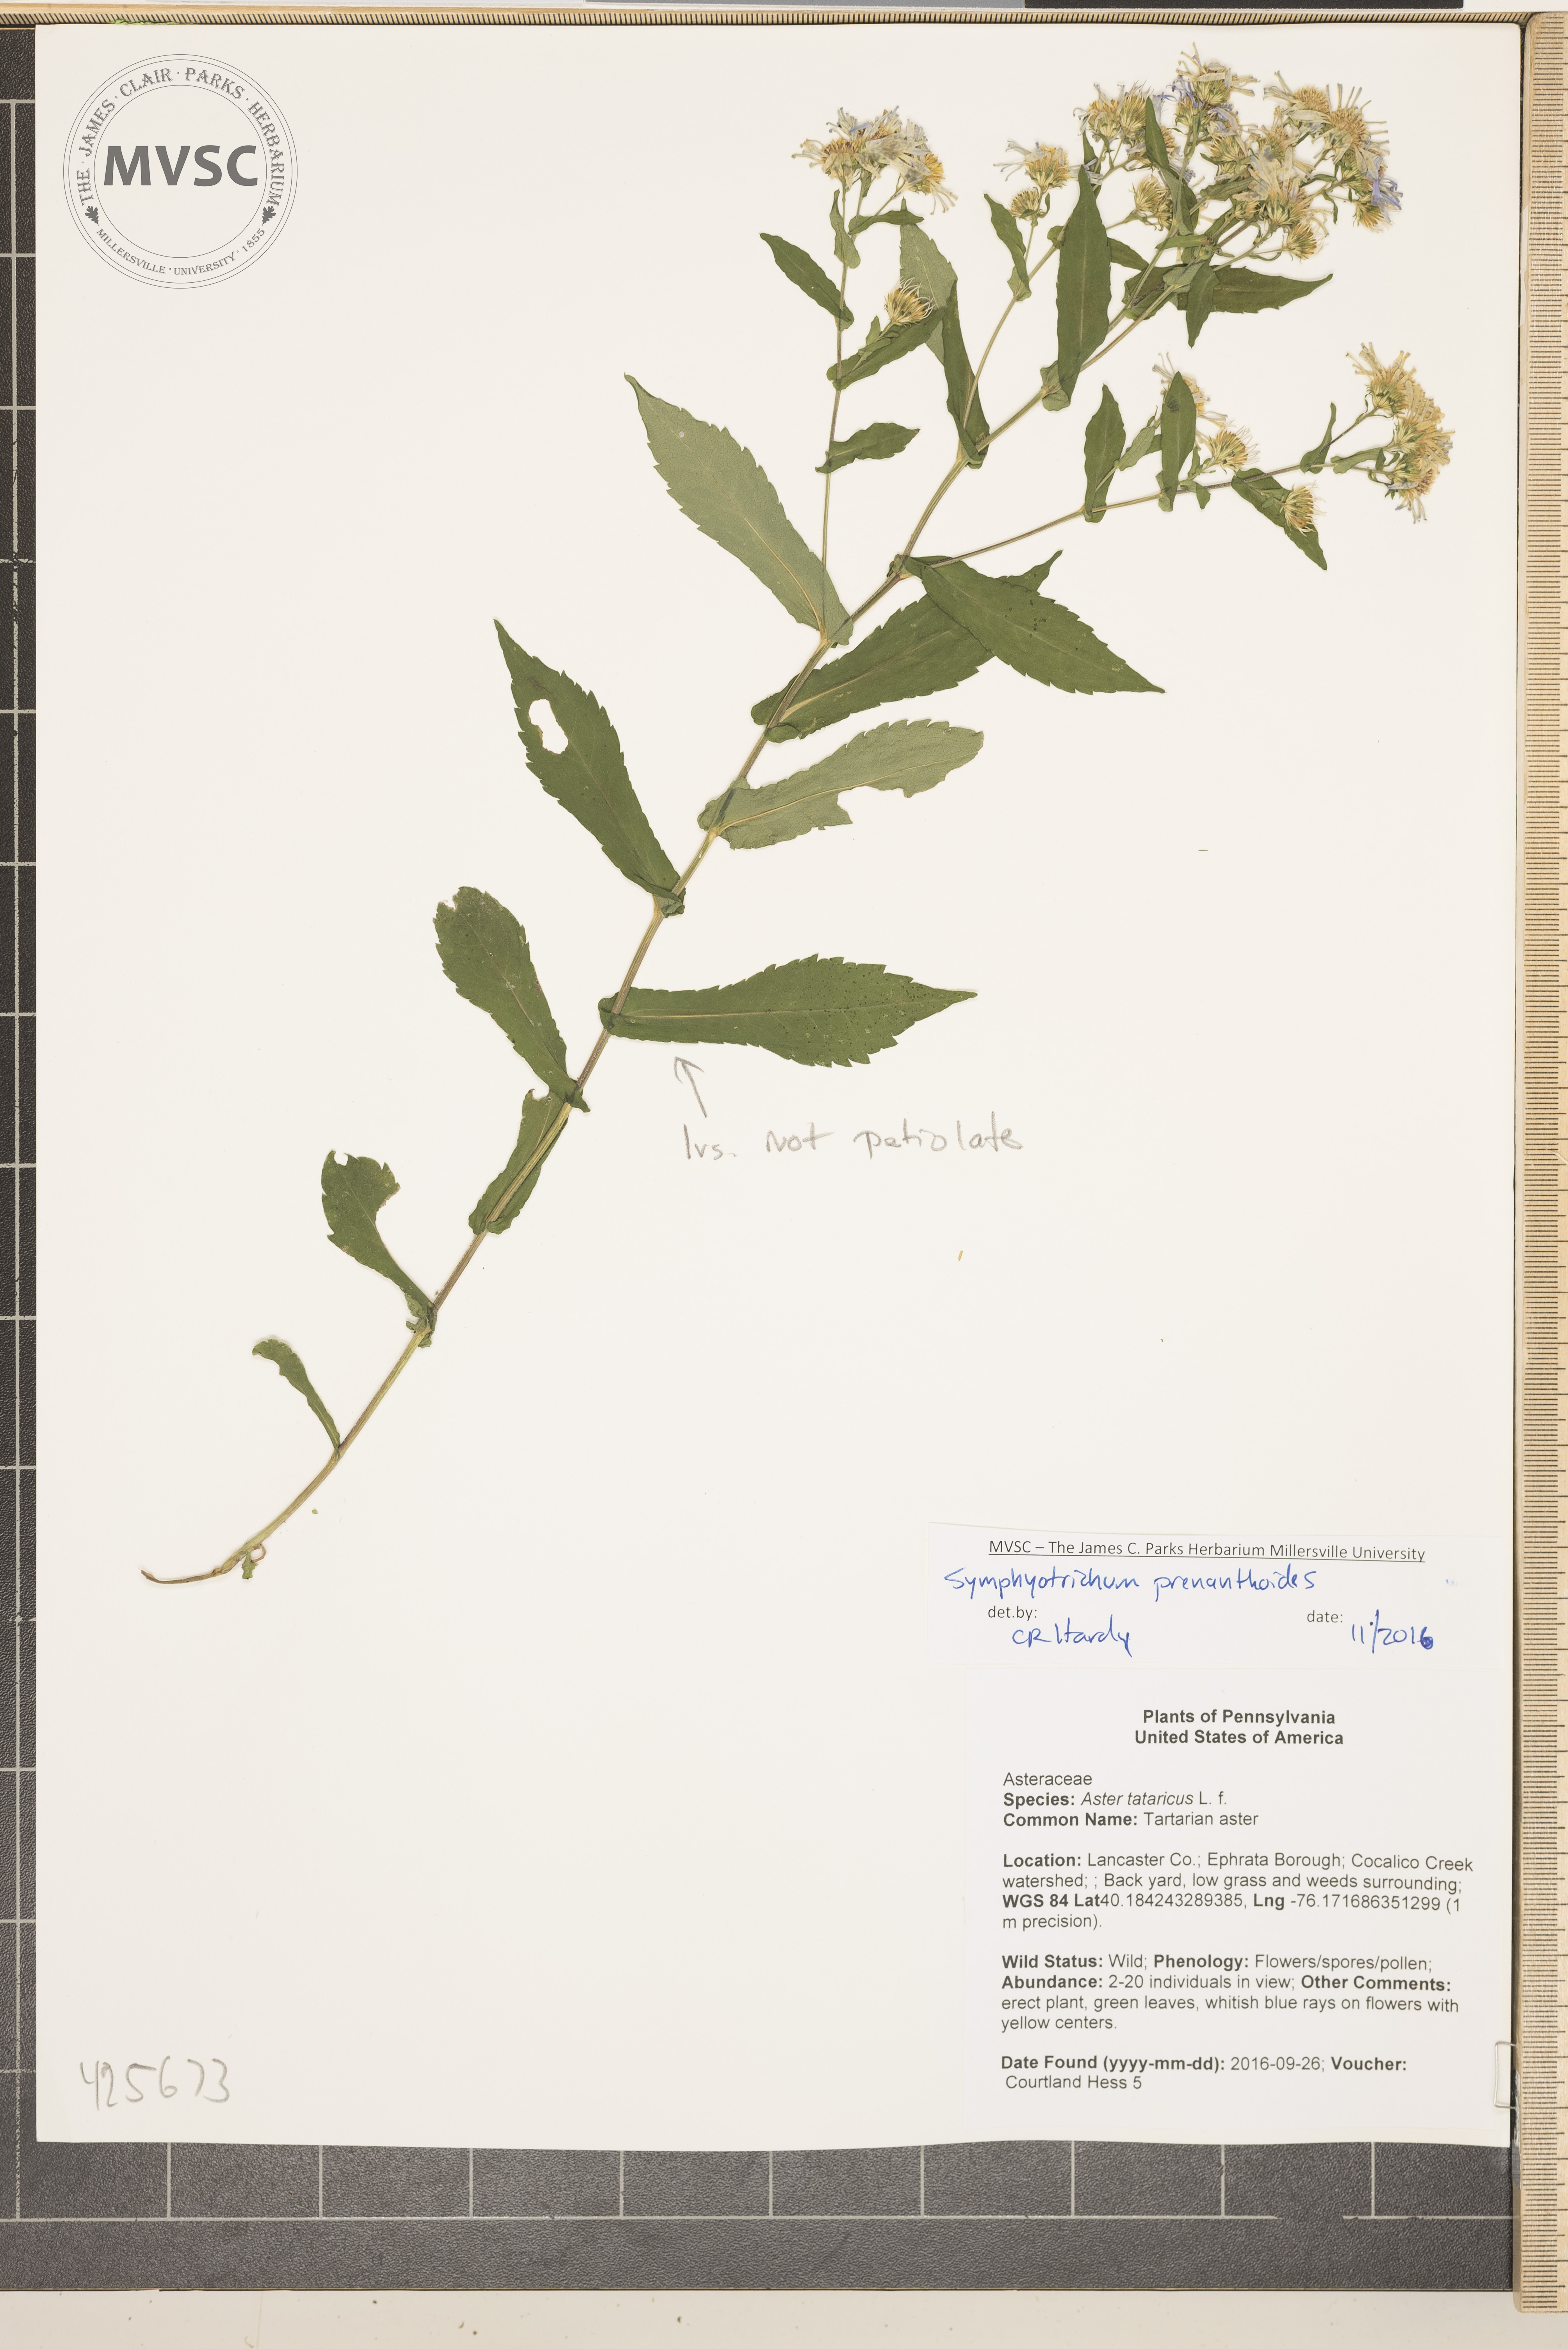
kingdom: Plantae
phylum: Tracheophyta
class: Magnoliopsida
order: Asterales
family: Asteraceae
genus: Symphyotrichum
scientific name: Symphyotrichum prenanthoides
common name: Crooked-stem aster
